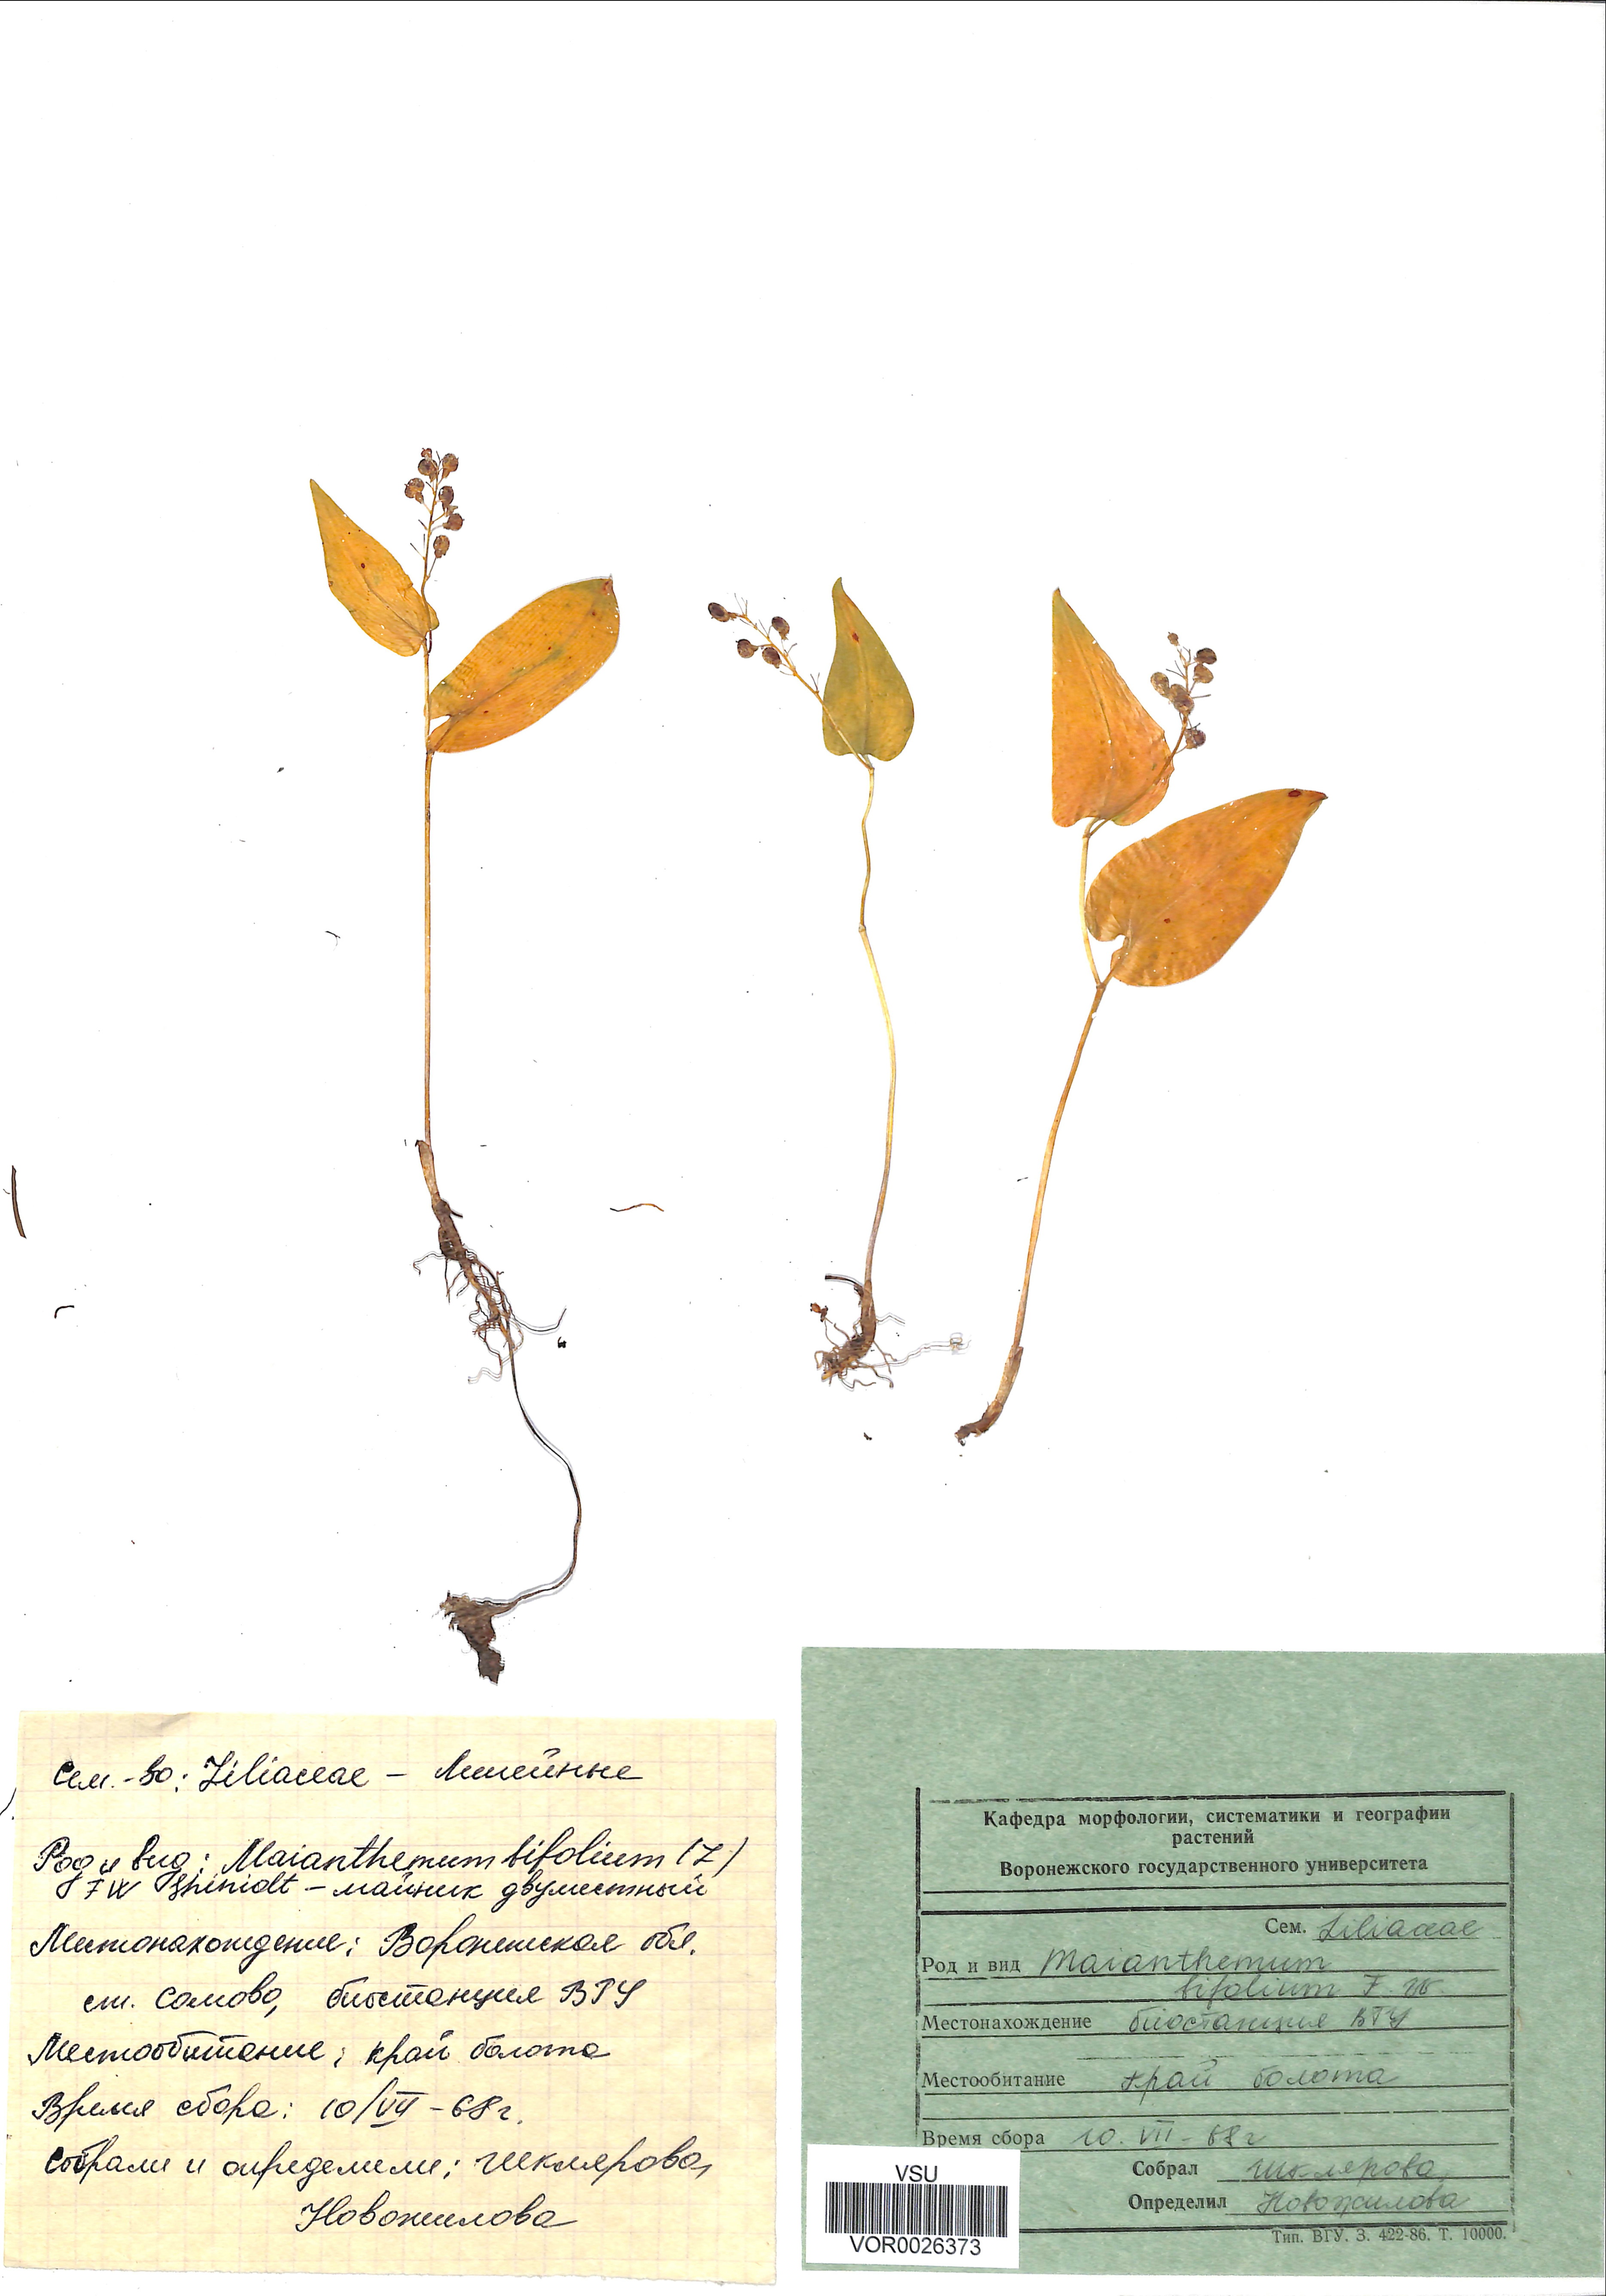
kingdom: Plantae
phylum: Tracheophyta
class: Liliopsida
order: Asparagales
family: Asparagaceae
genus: Maianthemum
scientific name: Maianthemum bifolium
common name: May lily
